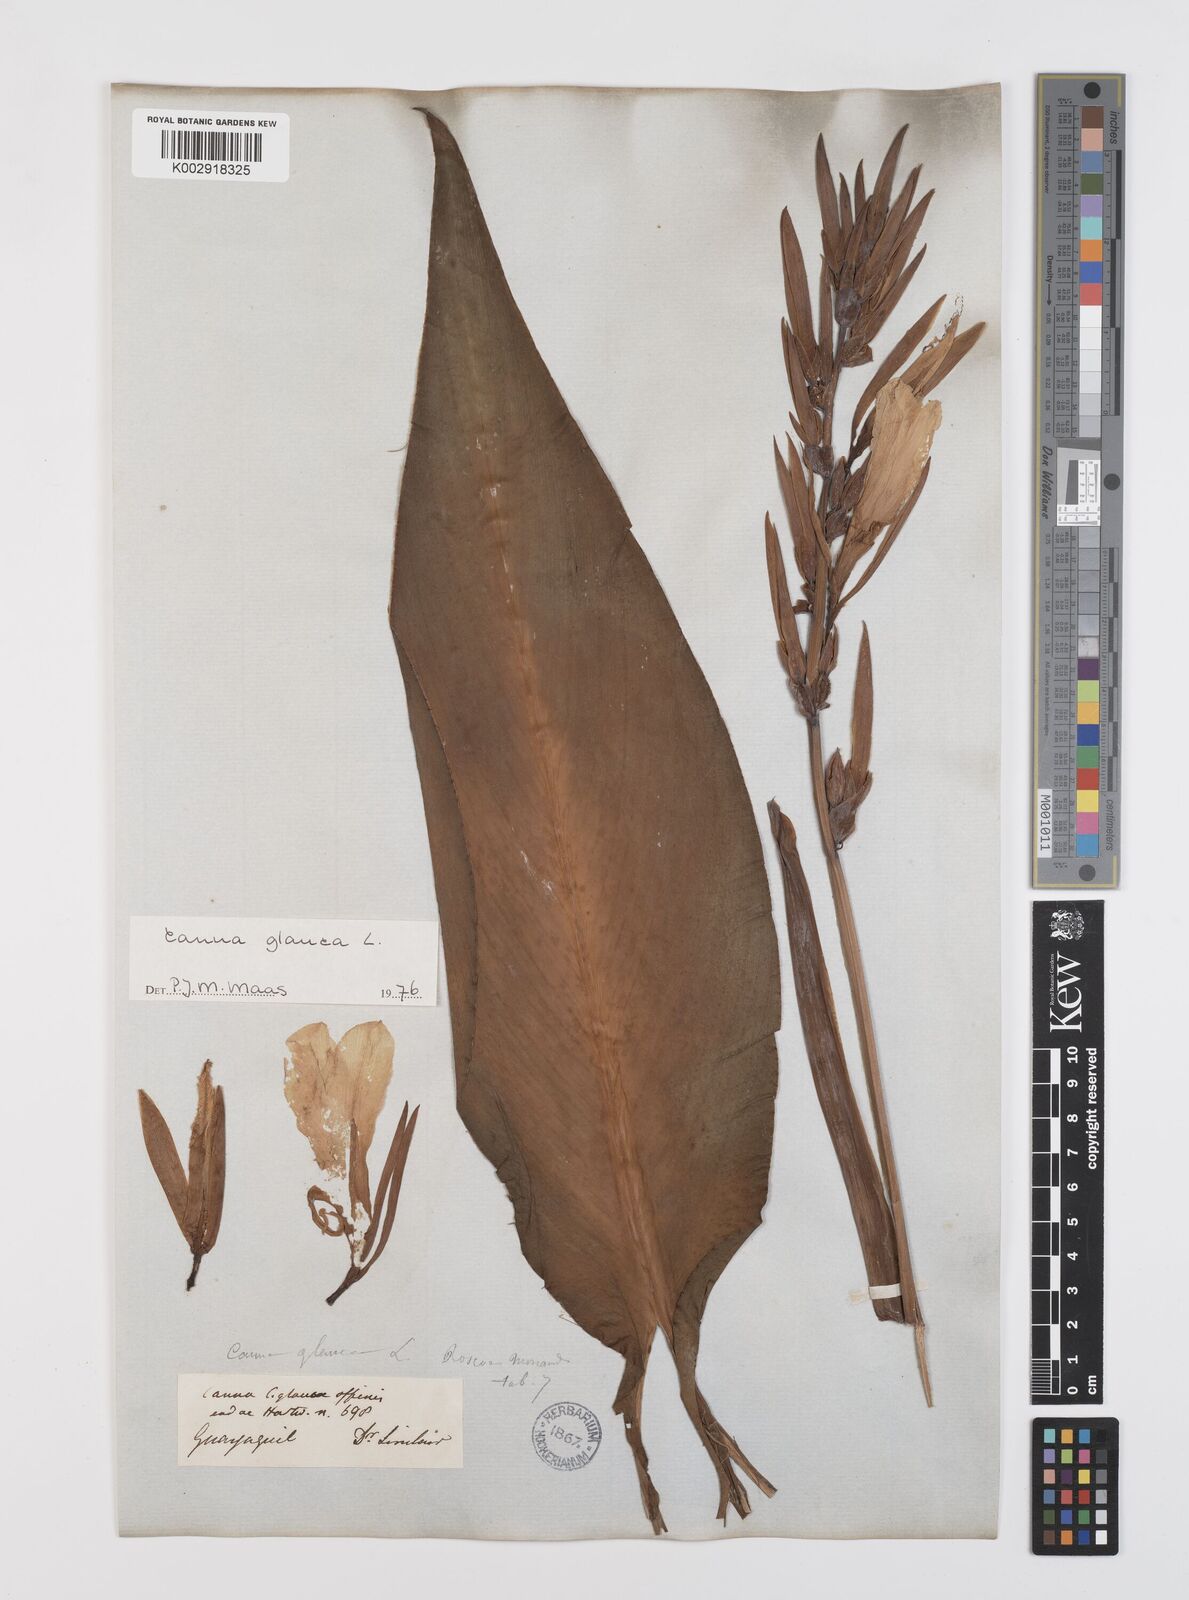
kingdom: Plantae
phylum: Tracheophyta
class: Liliopsida
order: Zingiberales
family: Cannaceae
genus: Canna
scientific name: Canna glauca
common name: Louisiana canna
